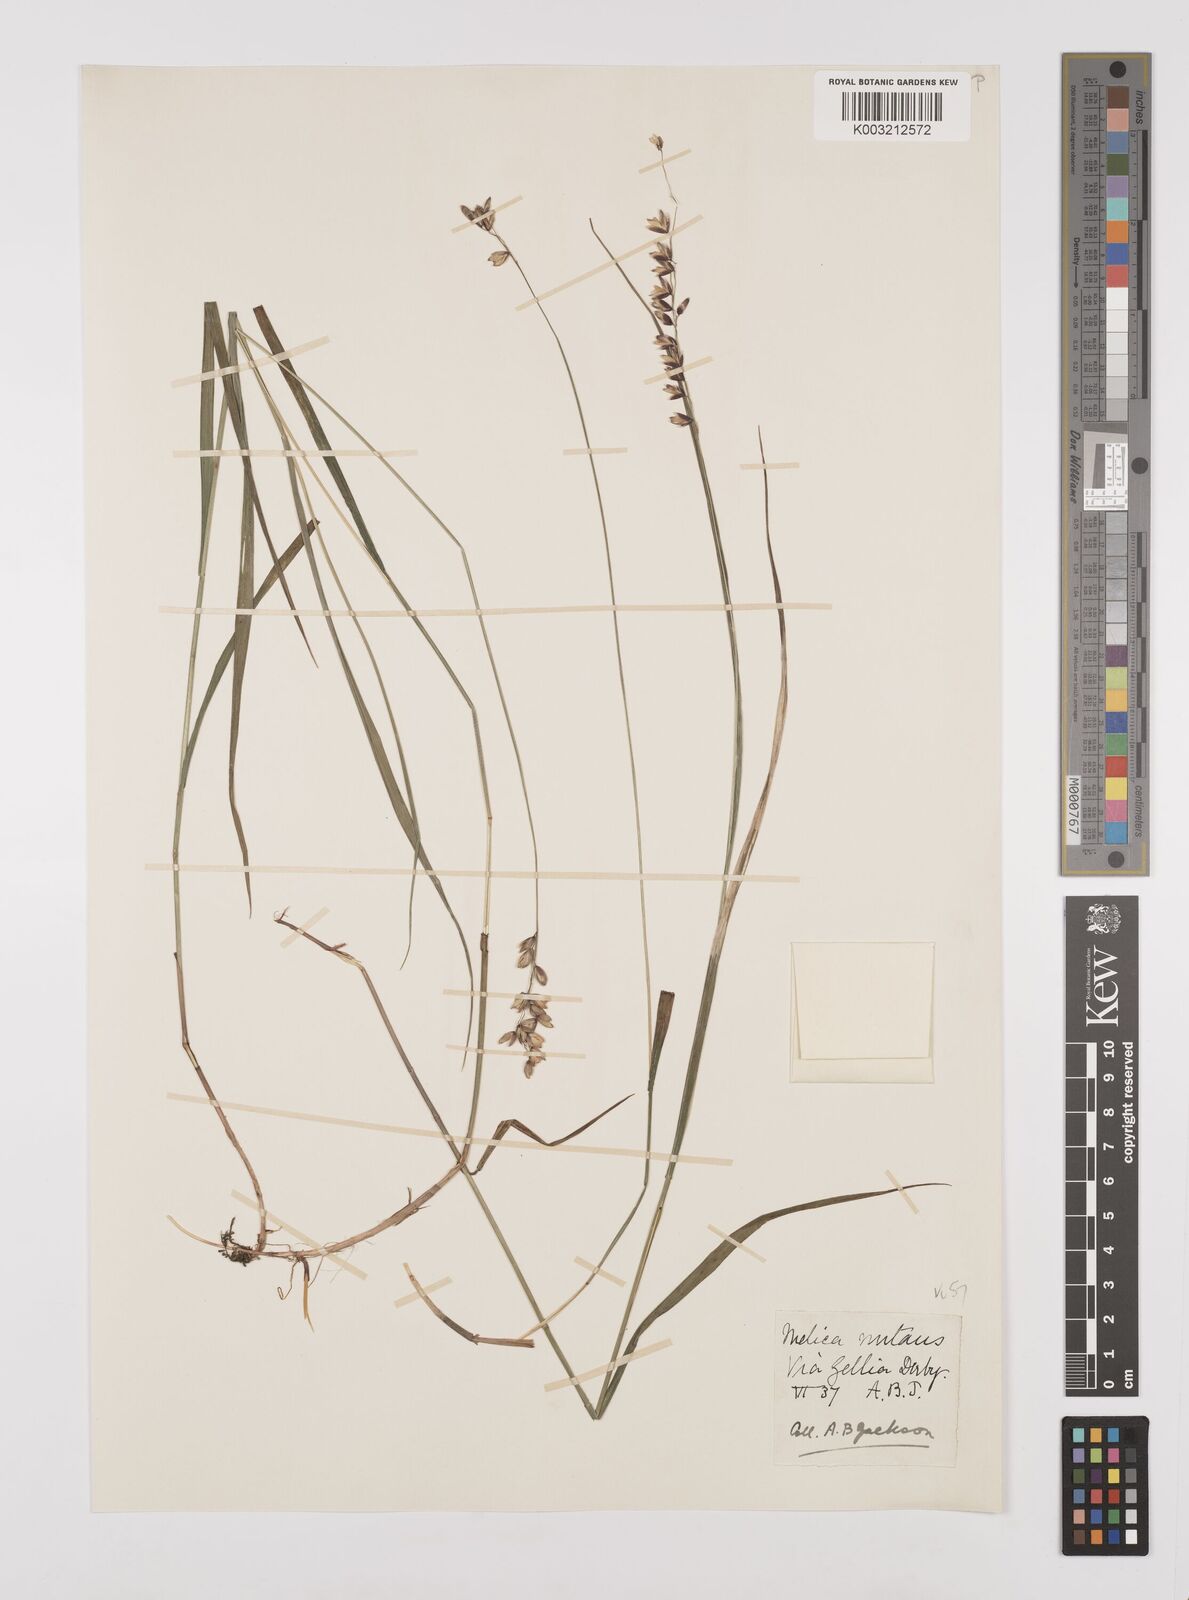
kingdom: Plantae
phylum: Tracheophyta
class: Liliopsida
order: Poales
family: Poaceae
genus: Melica
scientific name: Melica
